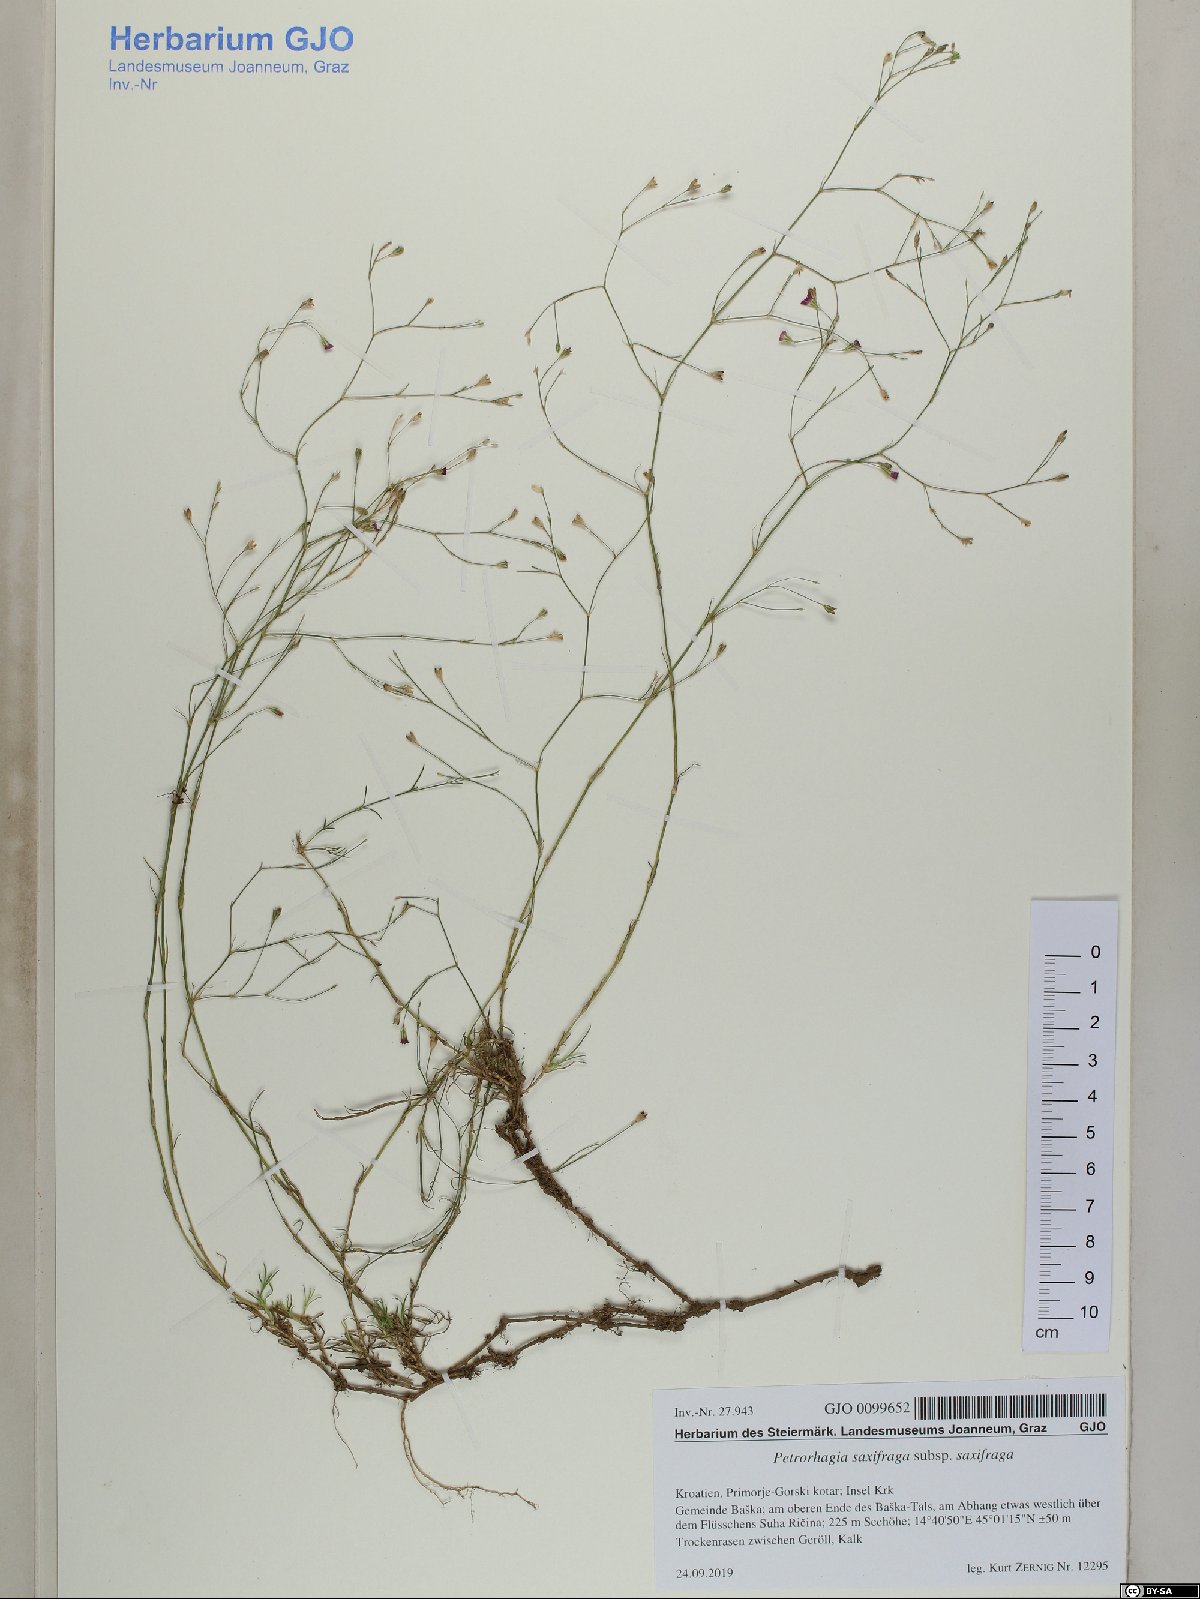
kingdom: Plantae
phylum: Tracheophyta
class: Magnoliopsida
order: Caryophyllales
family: Caryophyllaceae
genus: Petrorhagia
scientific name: Petrorhagia saxifraga
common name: Tunicflower
